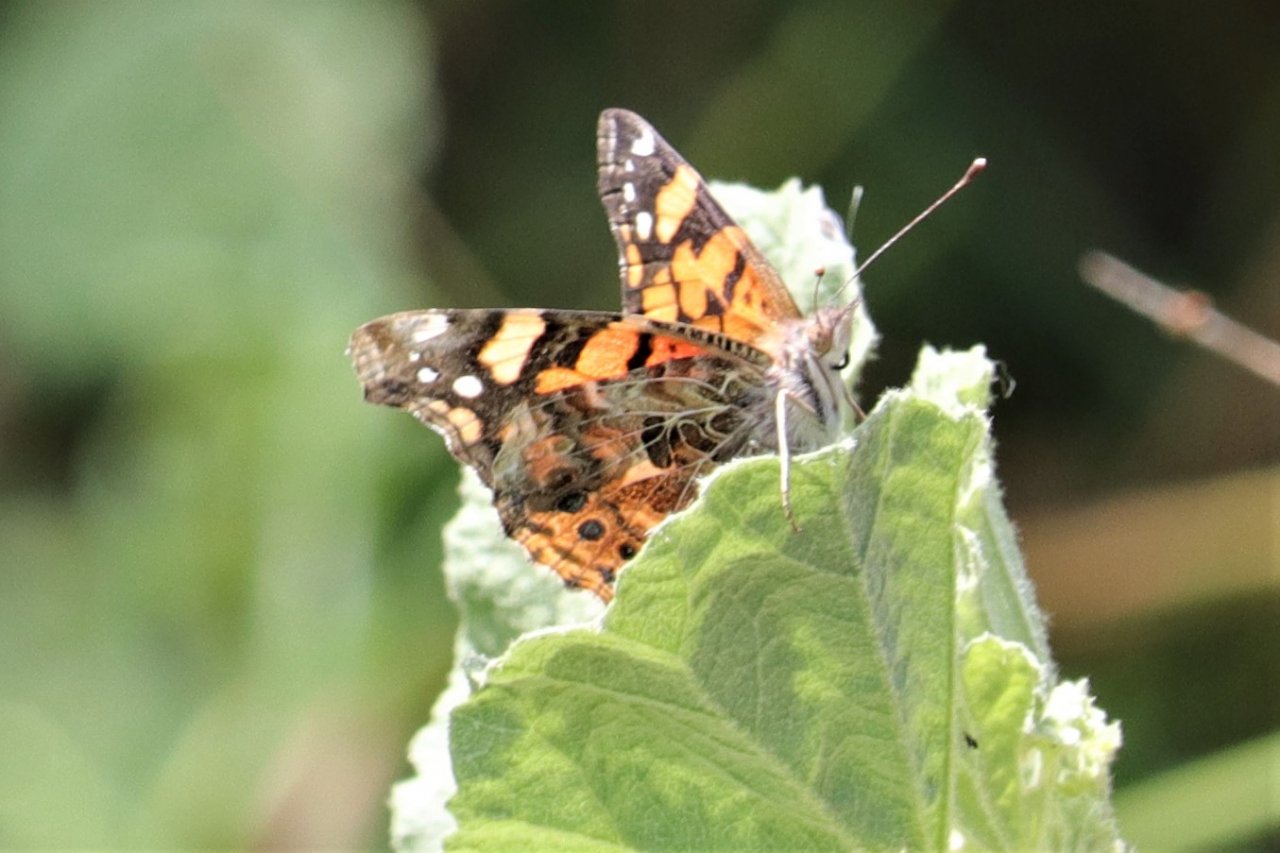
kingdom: Animalia
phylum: Arthropoda
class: Insecta
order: Lepidoptera
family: Nymphalidae
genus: Vanessa
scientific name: Vanessa annabella
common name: West Coast Lady
